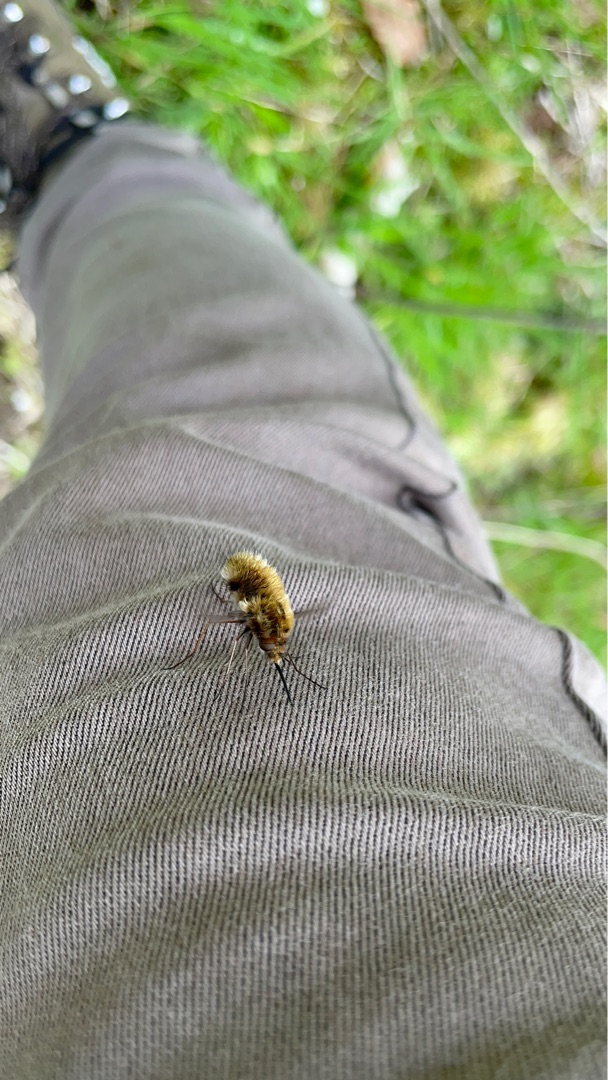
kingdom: Animalia
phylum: Arthropoda
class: Insecta
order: Diptera
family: Bombyliidae
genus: Bombylius
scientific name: Bombylius major
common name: Stor humleflue
